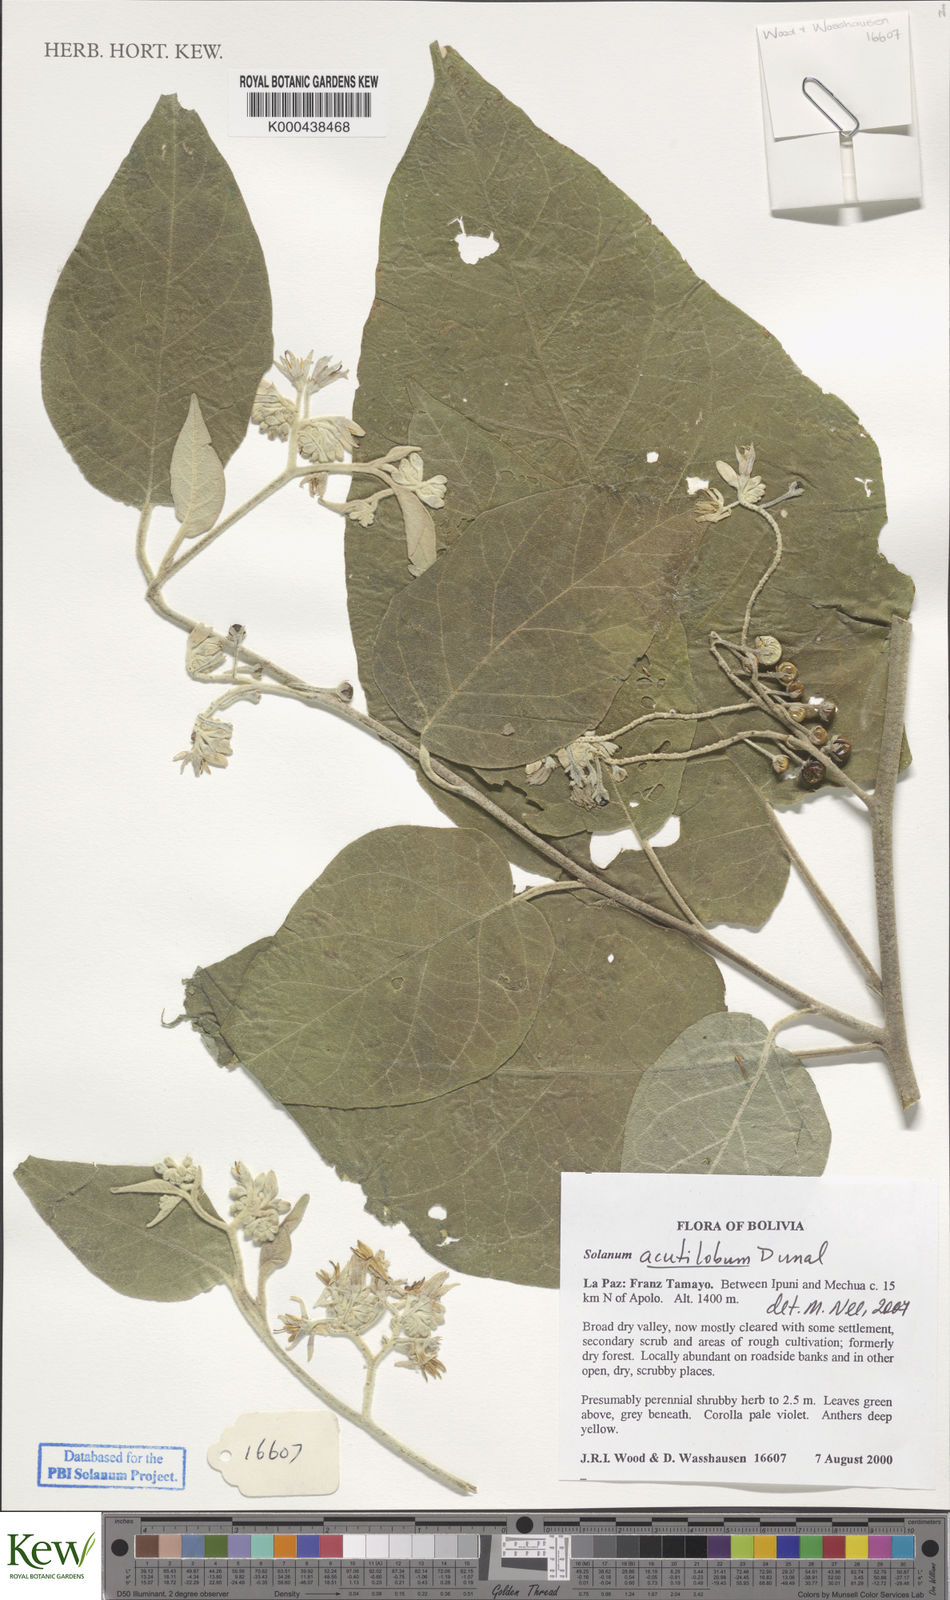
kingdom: Plantae
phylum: Tracheophyta
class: Magnoliopsida
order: Solanales
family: Solanaceae
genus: Solanum
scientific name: Solanum acutilobum
